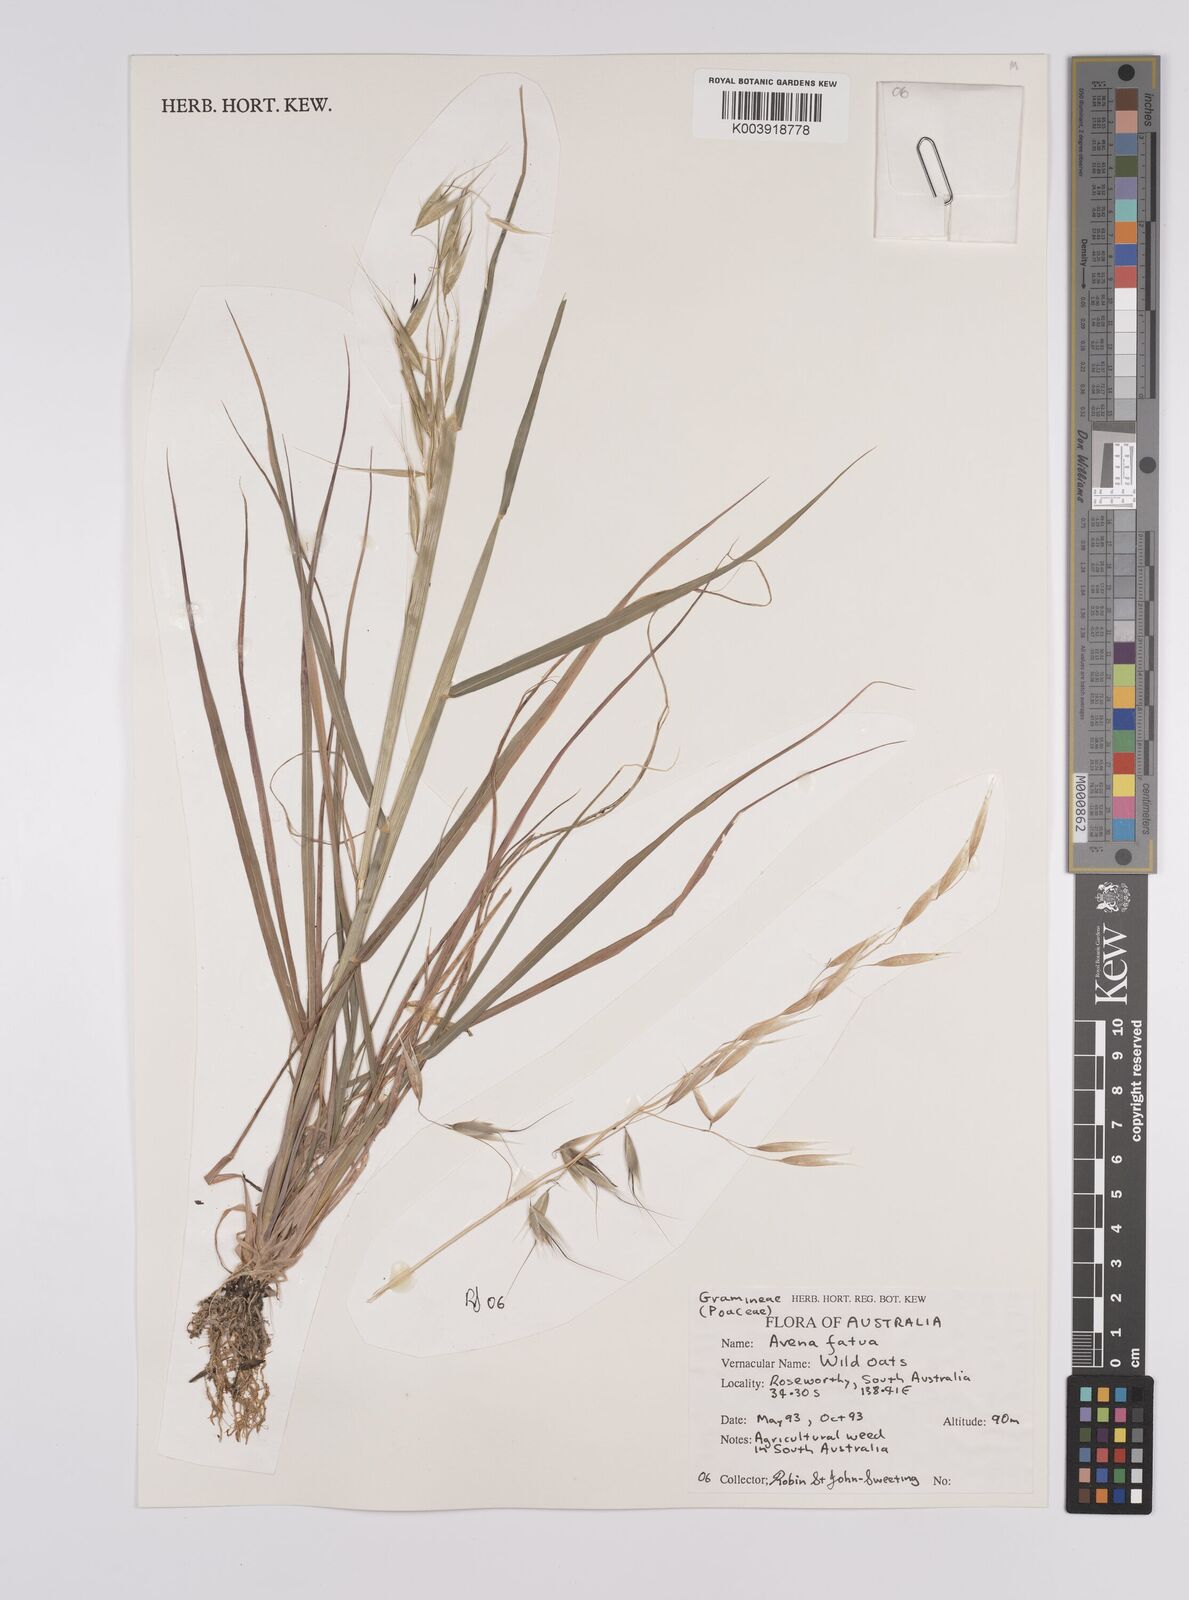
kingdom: Plantae
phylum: Tracheophyta
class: Liliopsida
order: Poales
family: Poaceae
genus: Avena
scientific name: Avena fatua
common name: Wild oat
